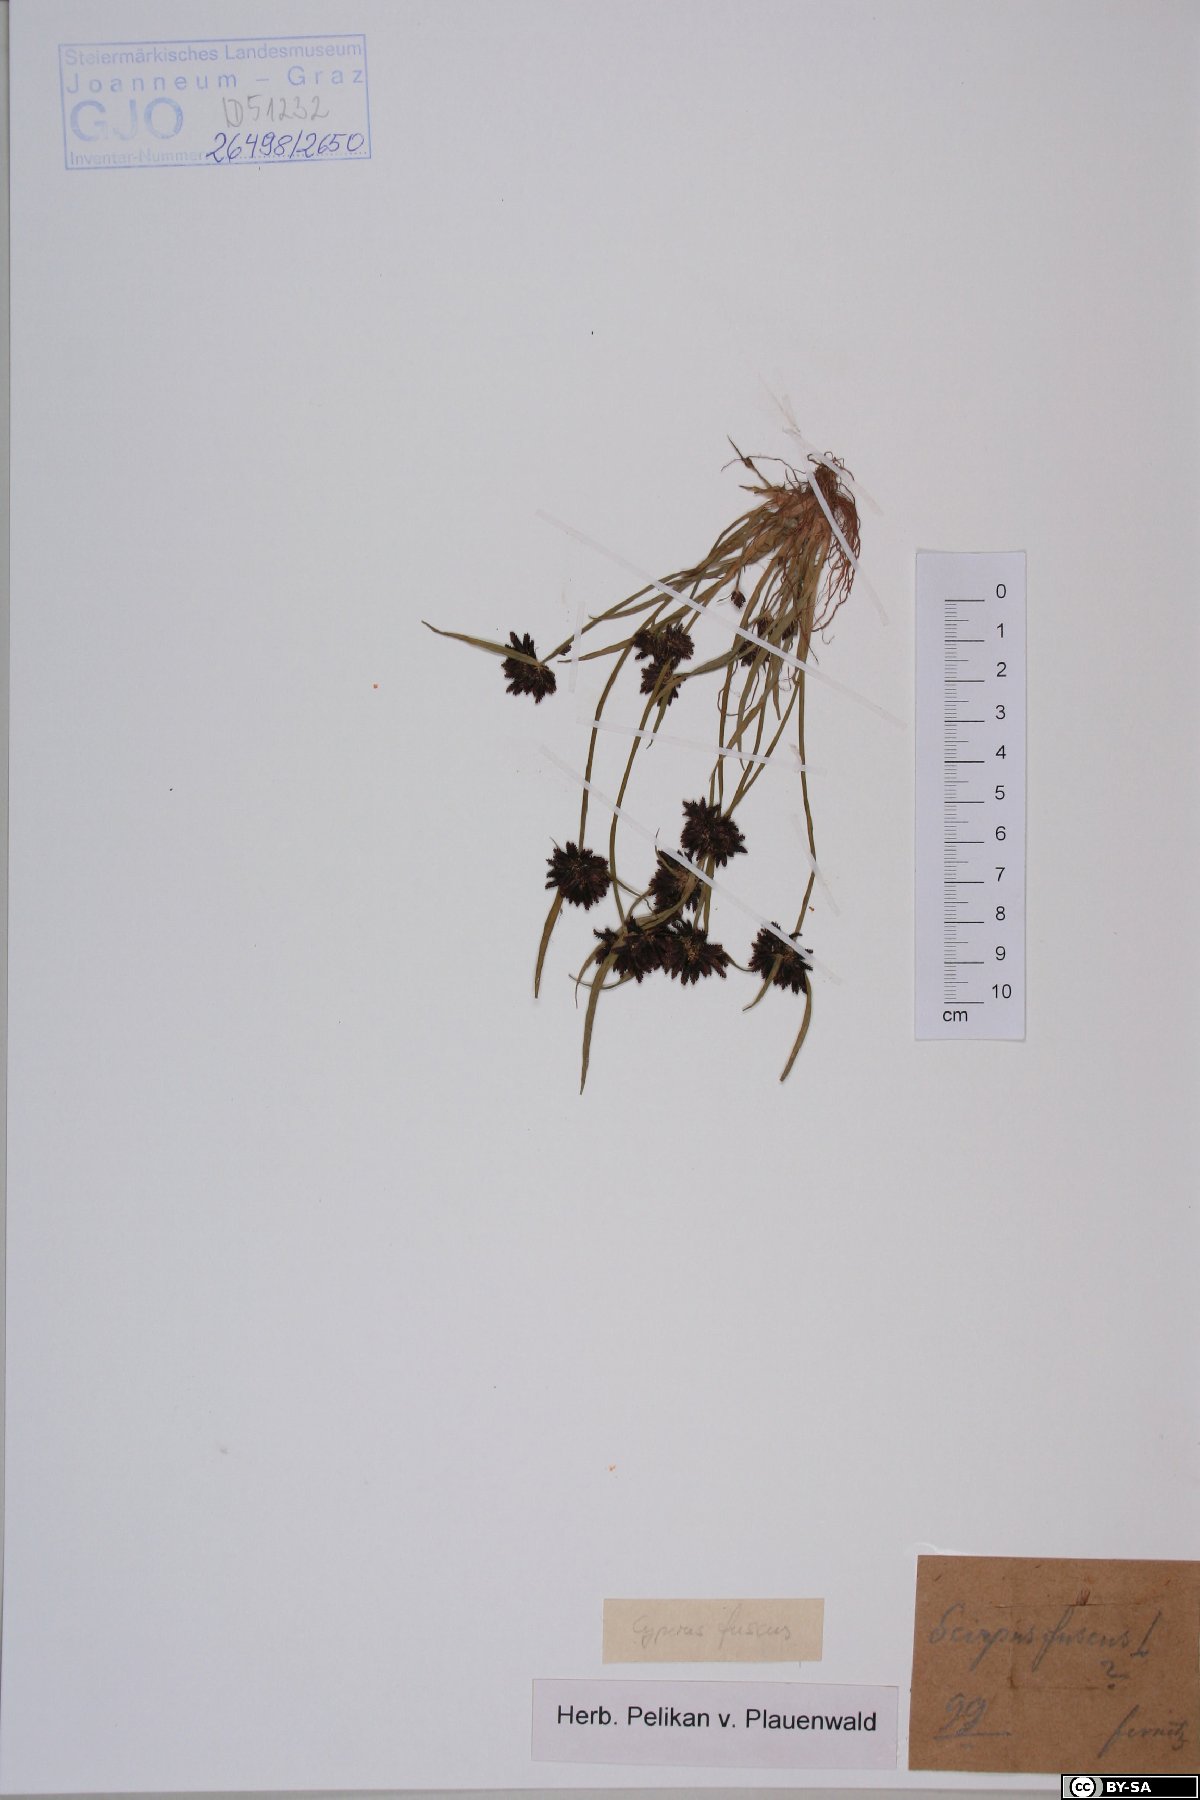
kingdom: Plantae
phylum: Tracheophyta
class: Liliopsida
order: Poales
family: Cyperaceae
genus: Bulbostylis
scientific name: Bulbostylis tenuifolia
